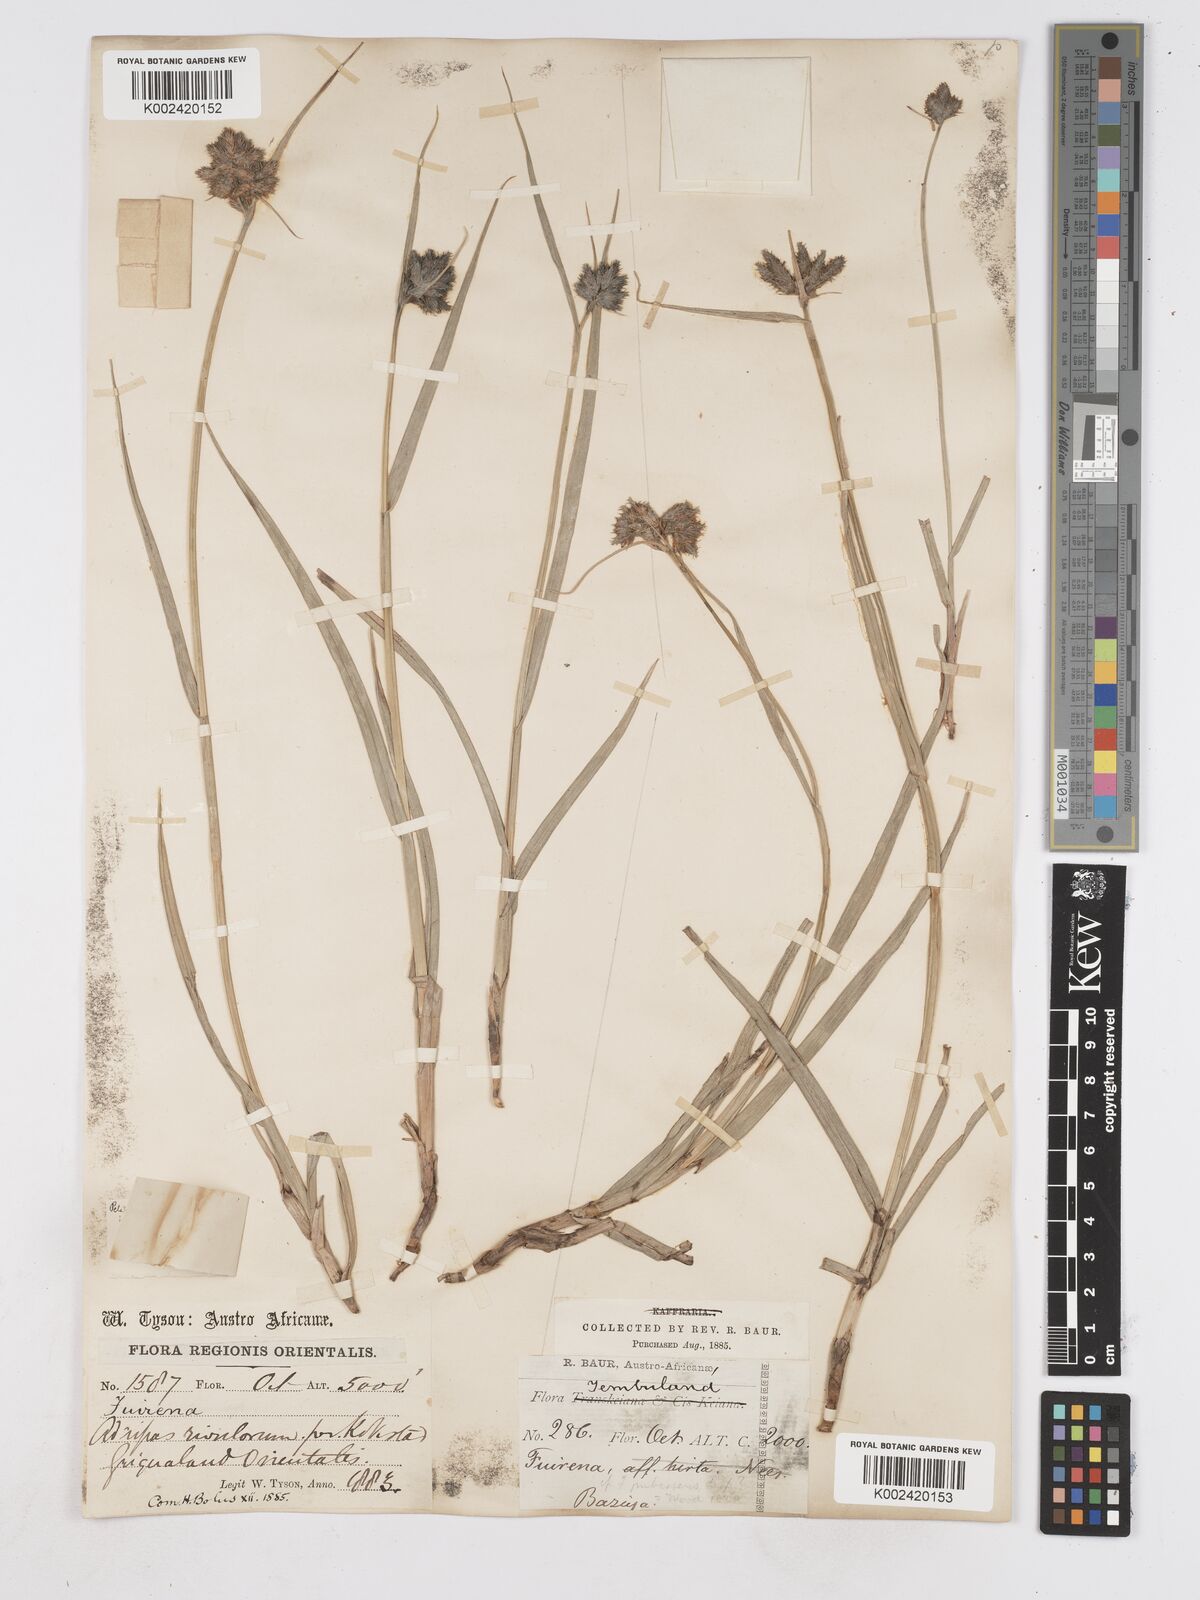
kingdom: Plantae
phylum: Tracheophyta
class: Liliopsida
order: Poales
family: Cyperaceae
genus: Fuirena
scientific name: Fuirena pubescens
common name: Hairy sedge
